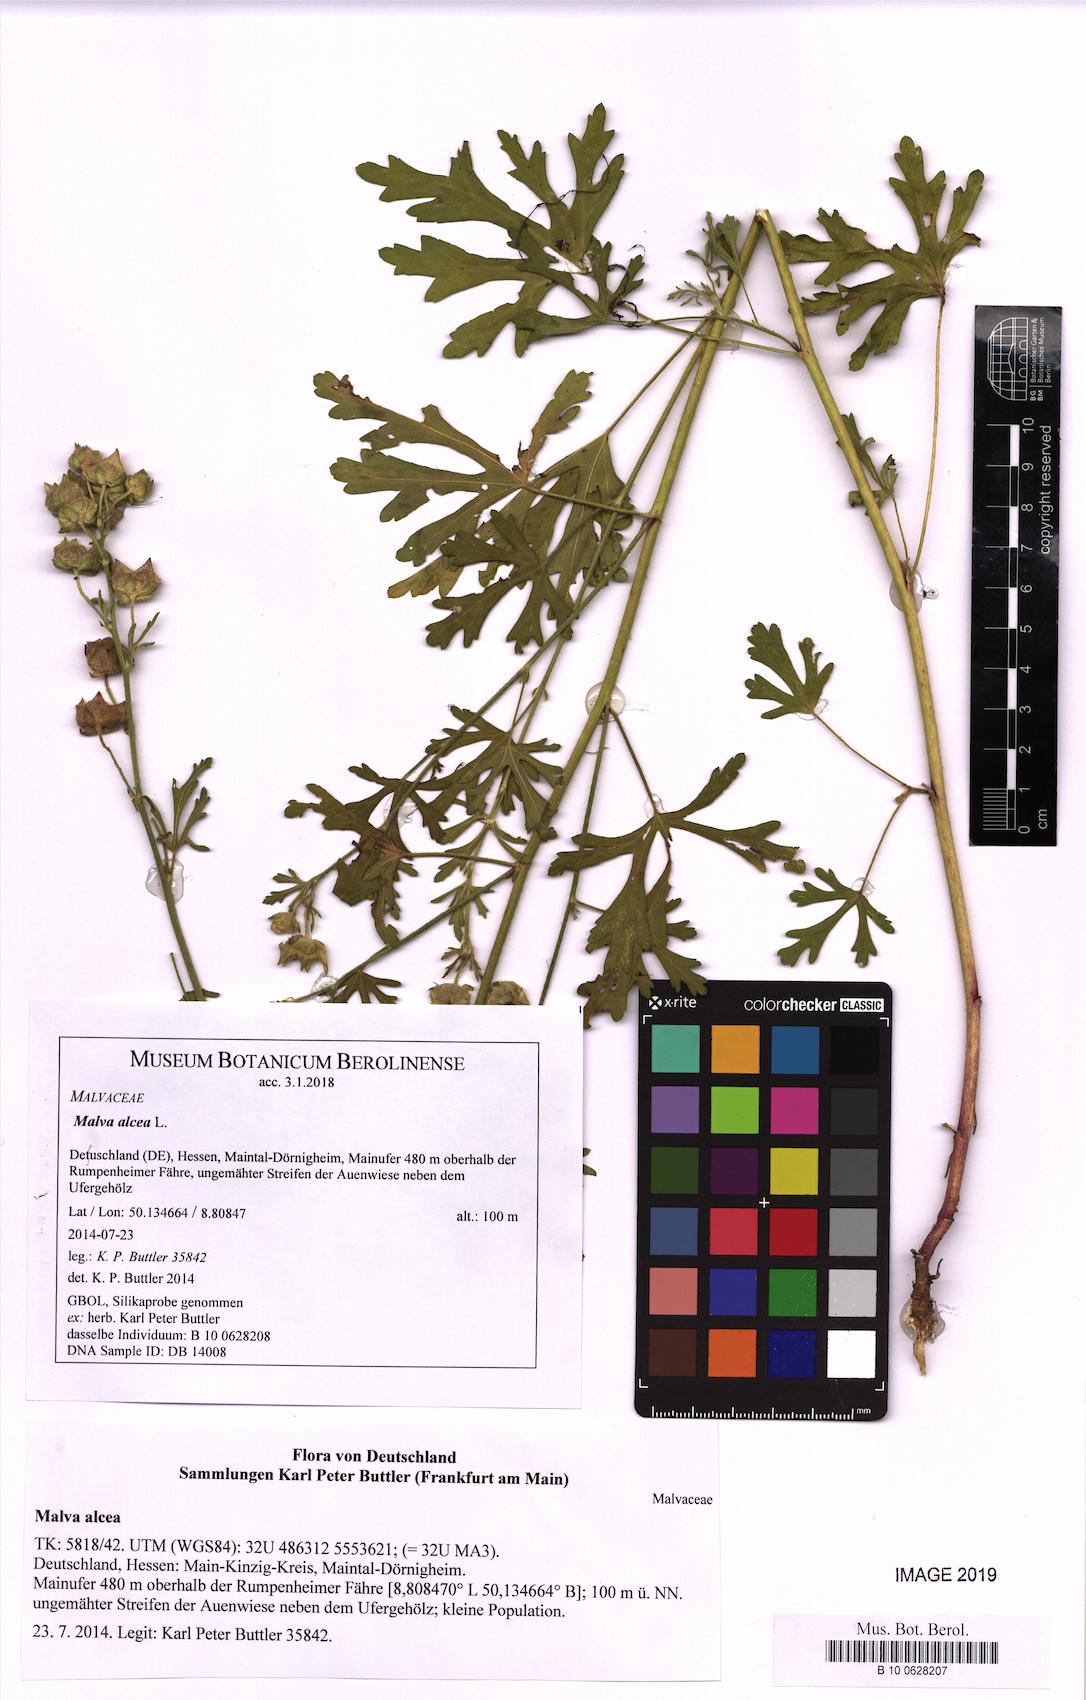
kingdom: Plantae
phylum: Tracheophyta
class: Magnoliopsida
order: Malvales
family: Malvaceae
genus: Malva
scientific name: Malva alcea
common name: Greater musk-mallow
